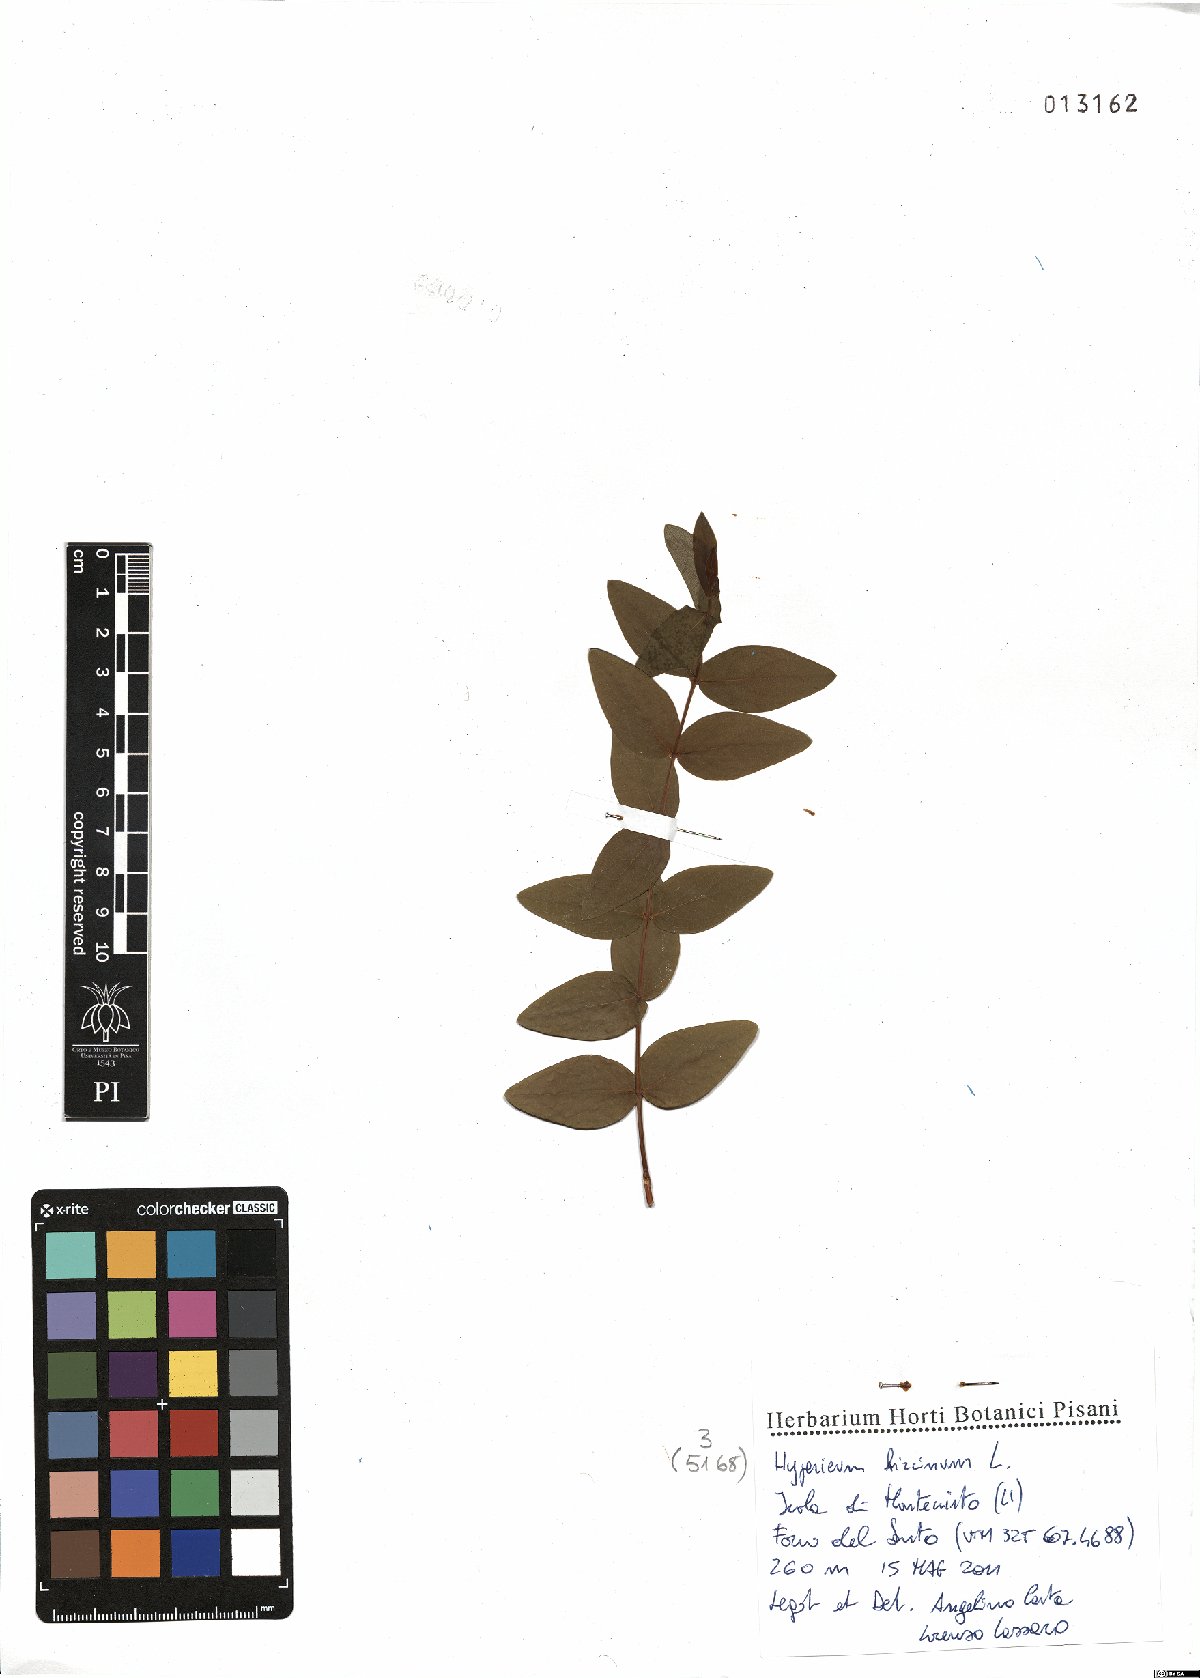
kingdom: Plantae
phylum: Tracheophyta
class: Magnoliopsida
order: Malpighiales
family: Hypericaceae
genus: Hypericum
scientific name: Hypericum hircinum
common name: Stinking tutsan
